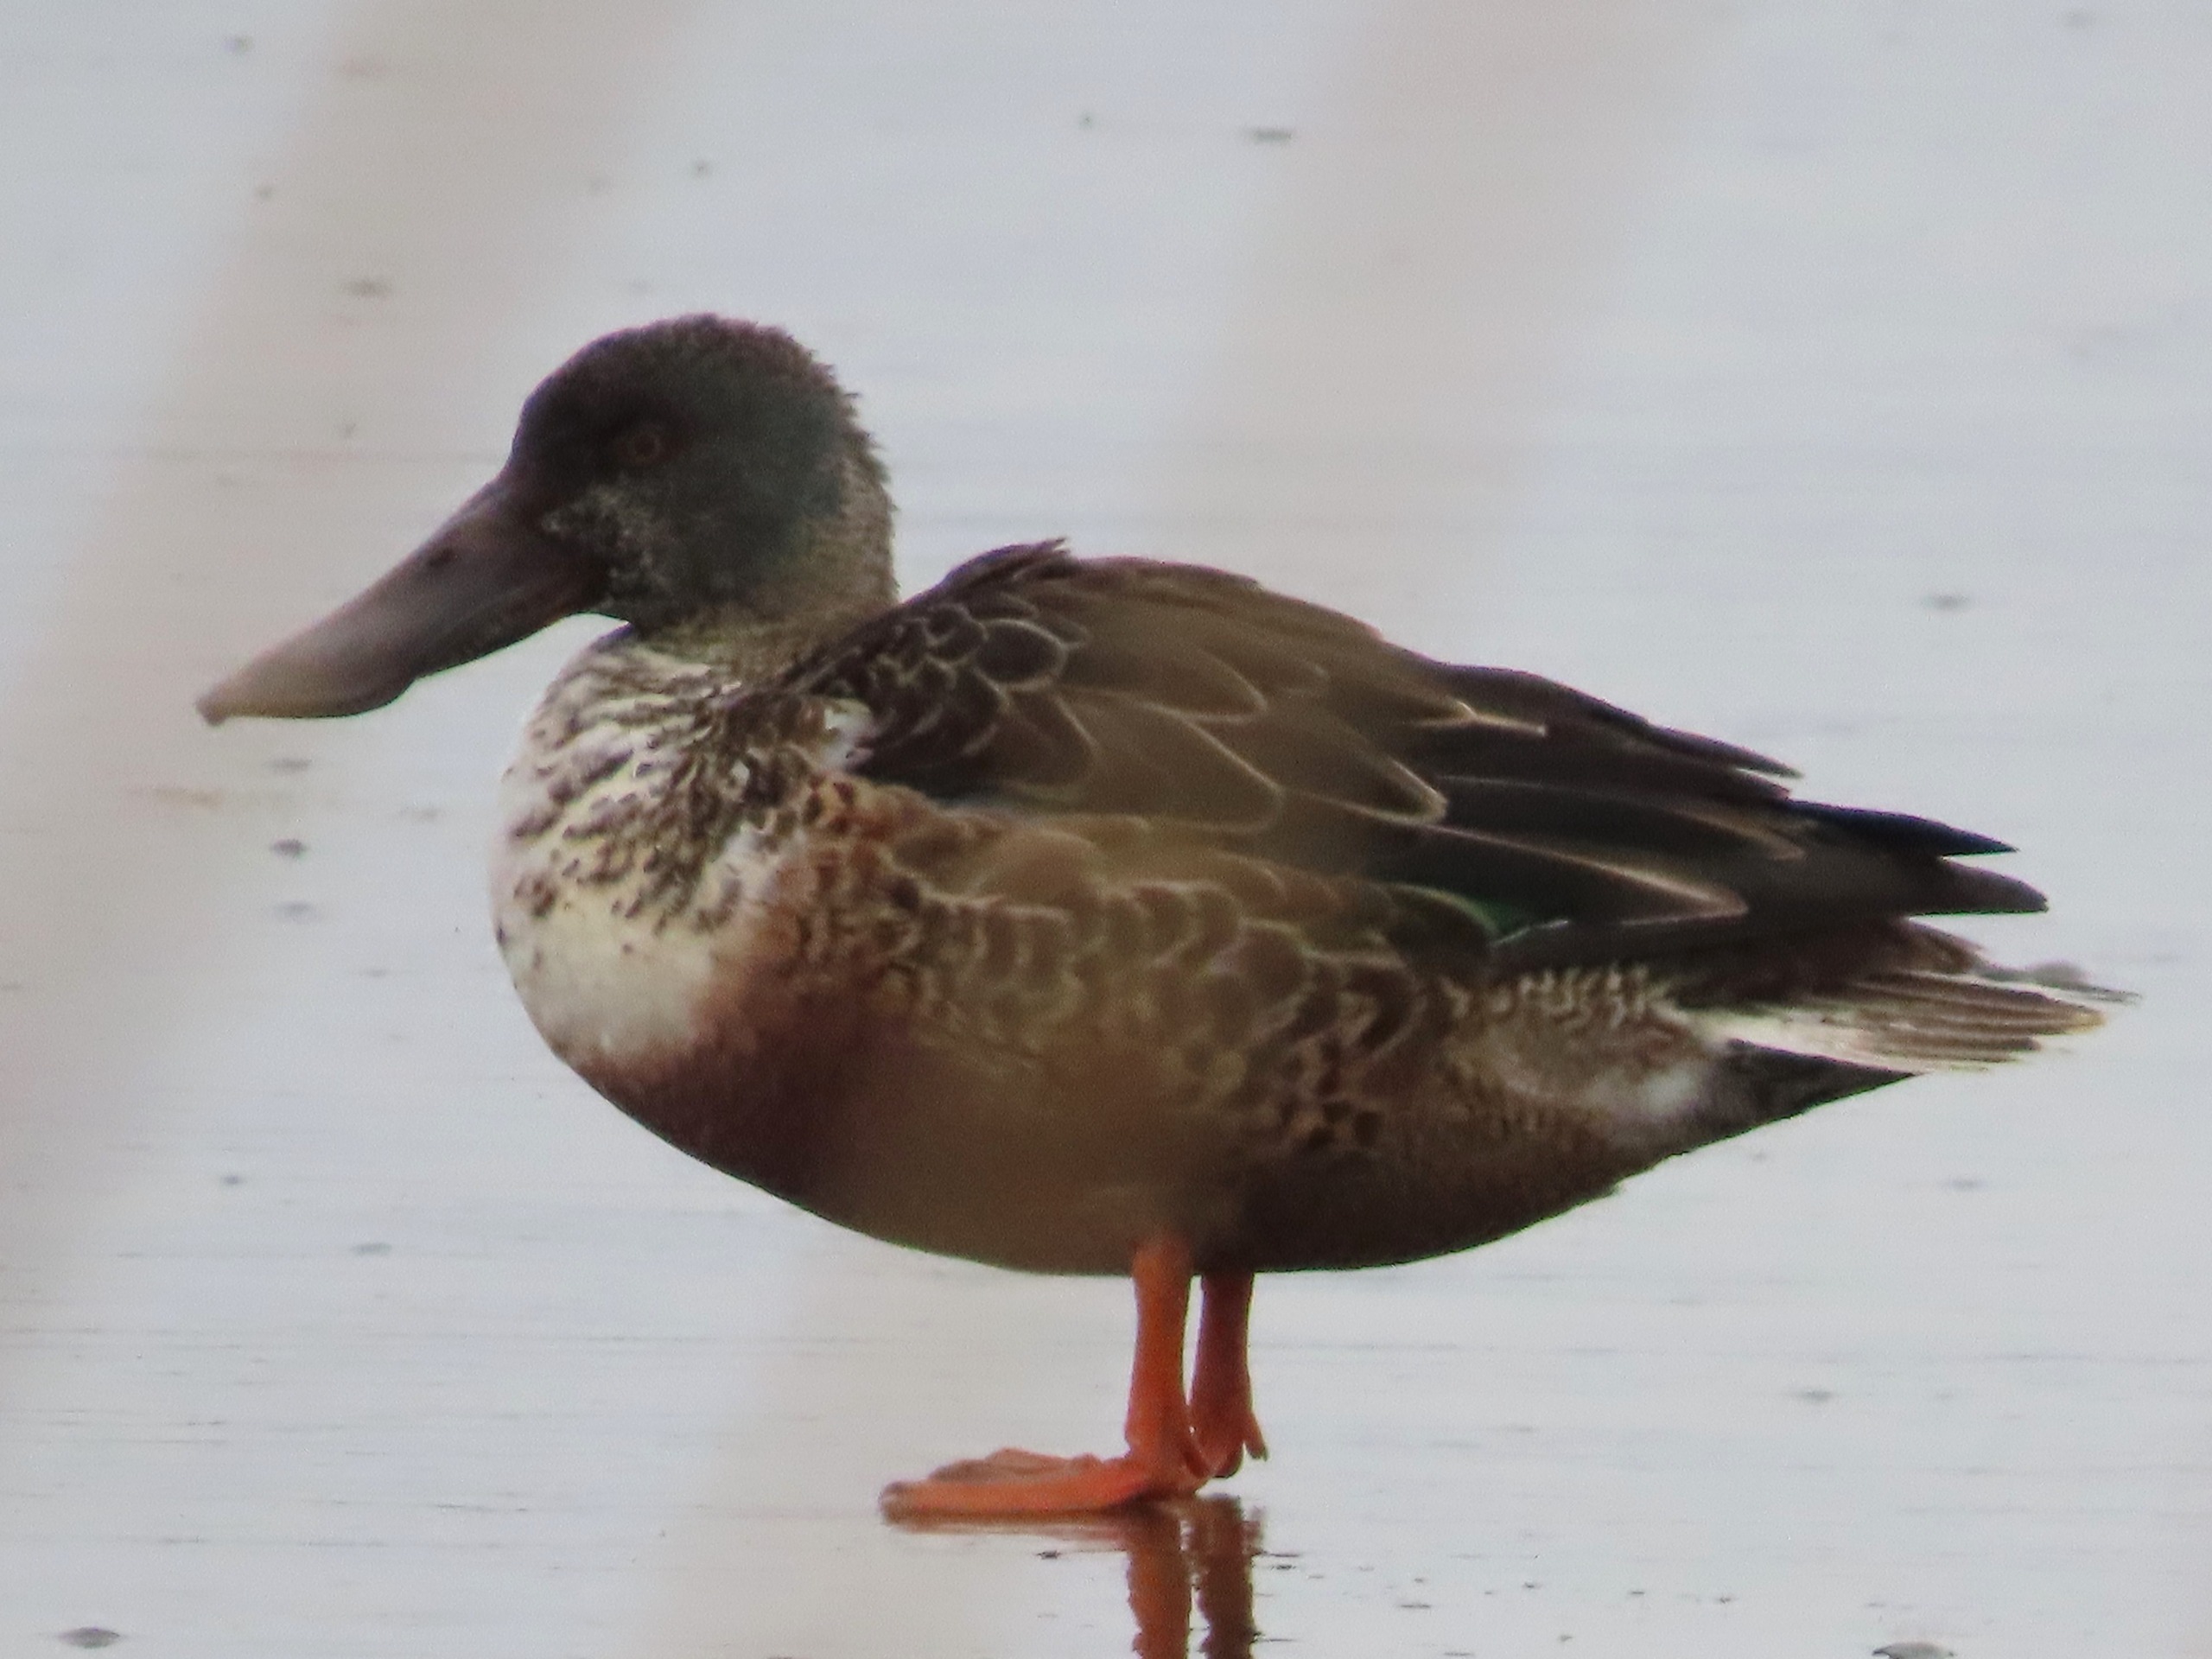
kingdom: Animalia
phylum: Chordata
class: Aves
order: Anseriformes
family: Anatidae
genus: Spatula
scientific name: Spatula clypeata
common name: Skeand
